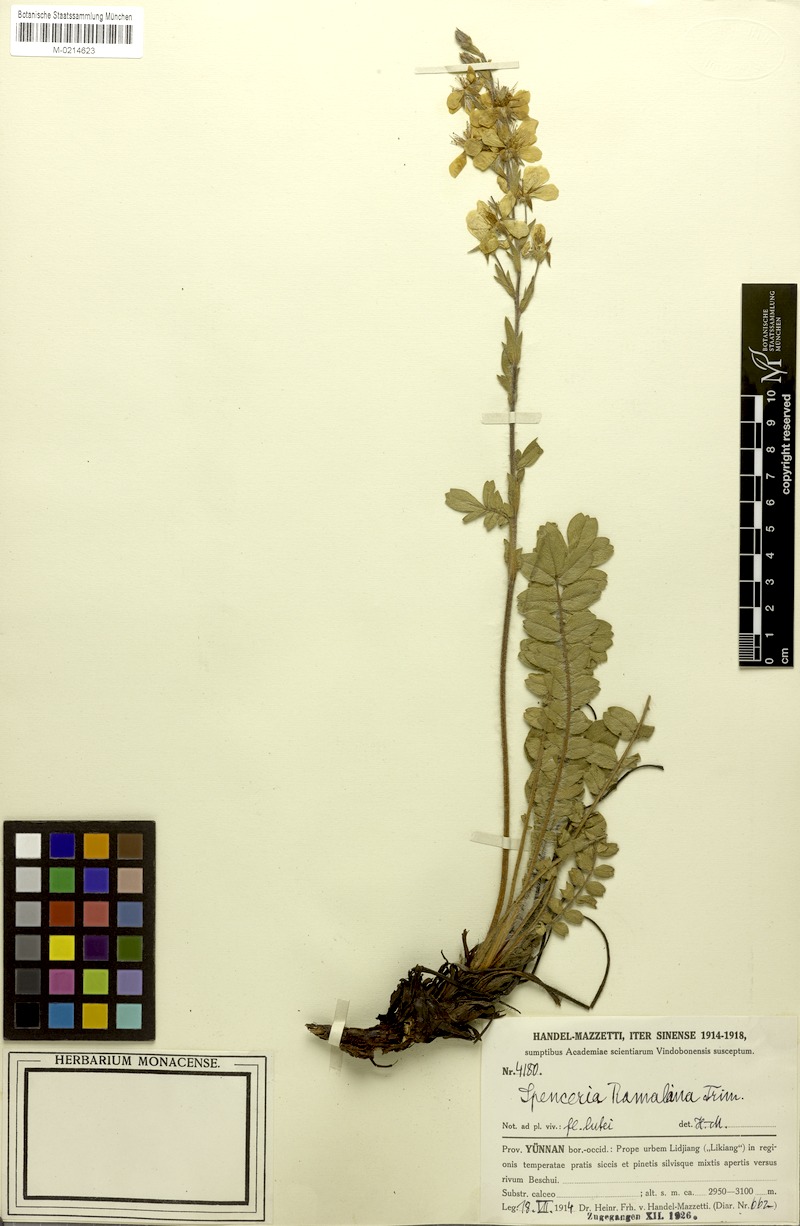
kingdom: Plantae
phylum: Tracheophyta
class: Magnoliopsida
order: Rosales
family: Rosaceae
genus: Spenceria
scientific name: Spenceria ramalana
